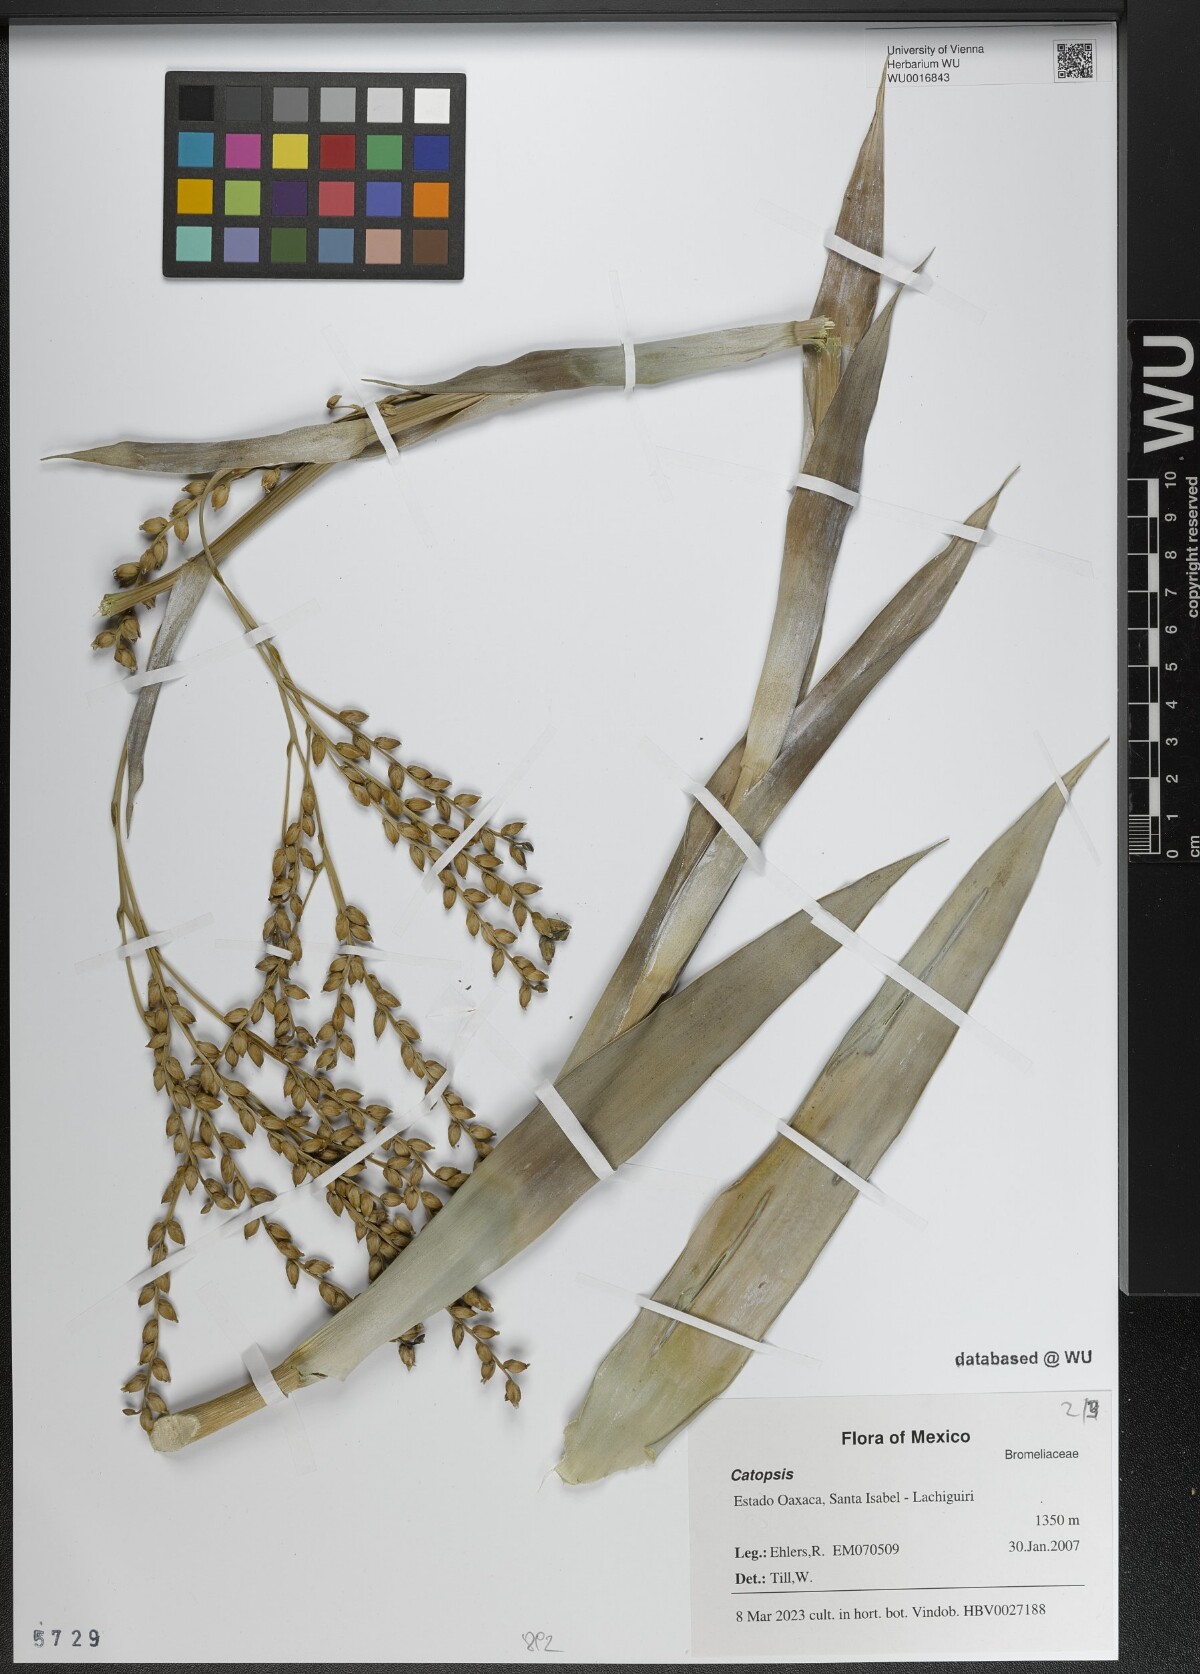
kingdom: Plantae
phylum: Tracheophyta
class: Liliopsida
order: Poales
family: Bromeliaceae
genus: Catopsis
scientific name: Catopsis
